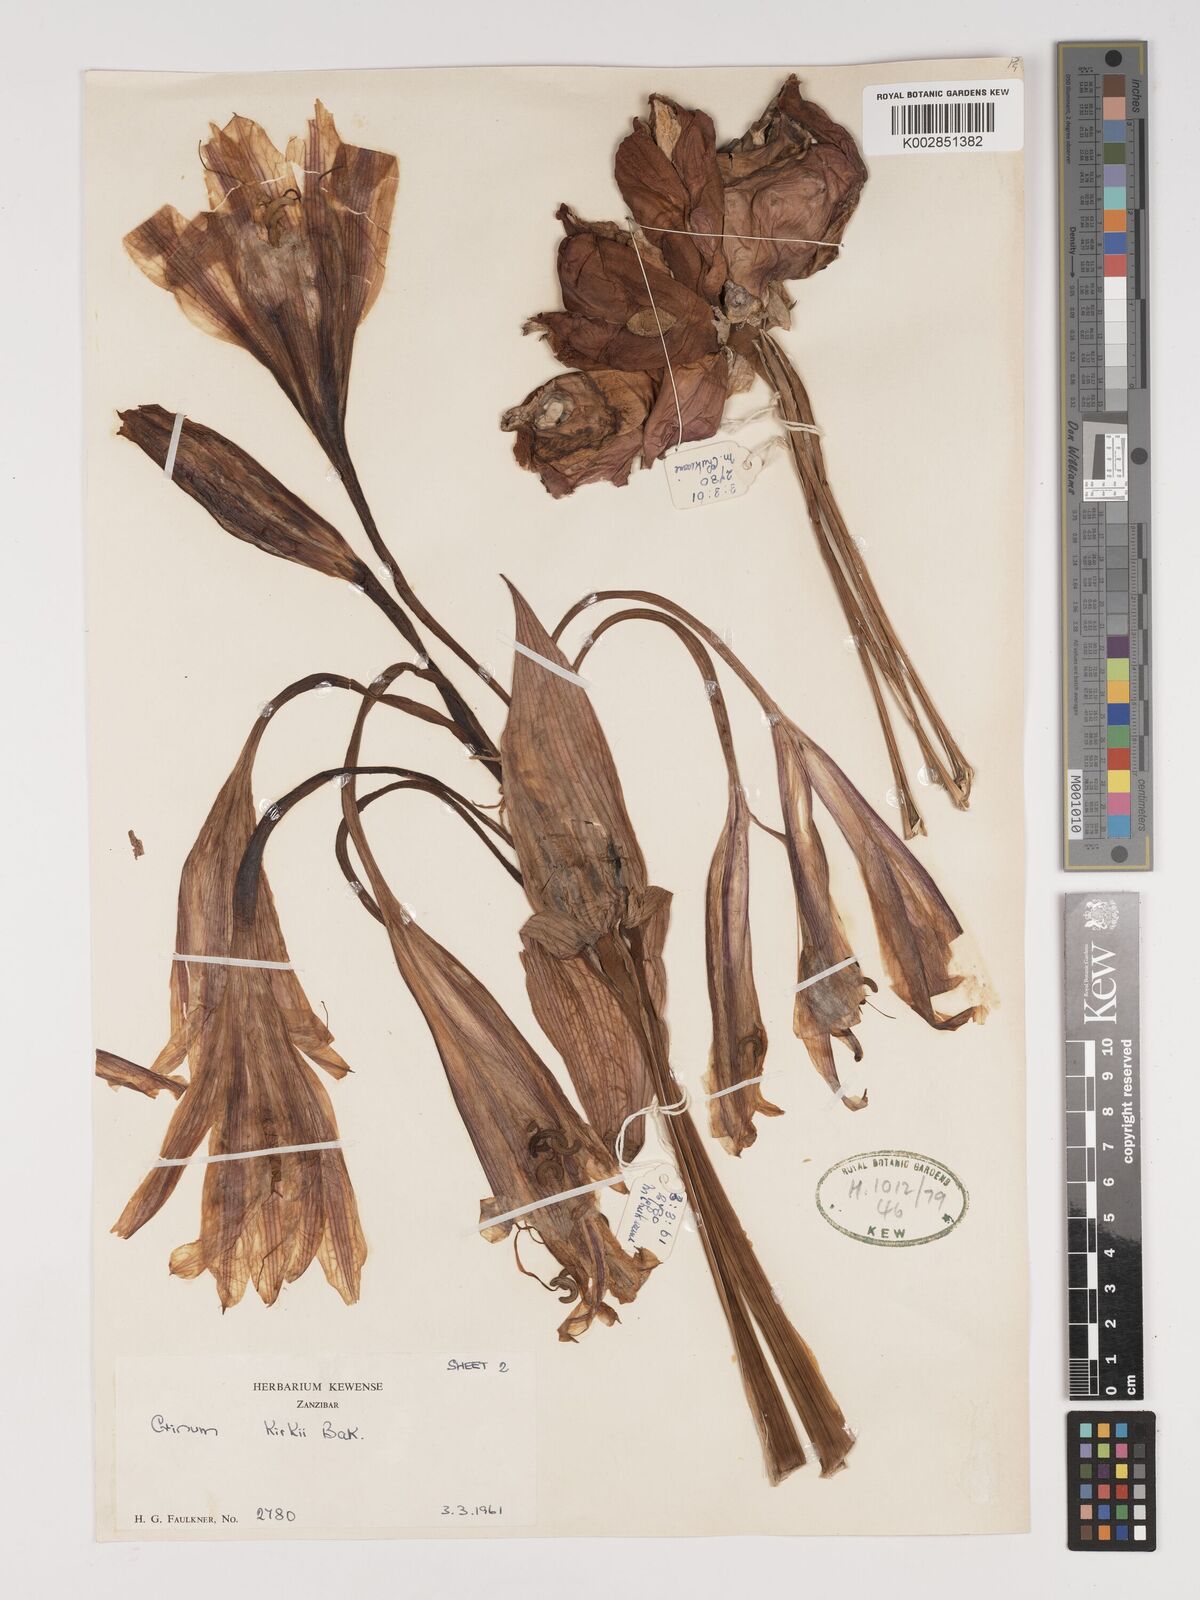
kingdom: Plantae
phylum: Tracheophyta
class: Liliopsida
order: Asparagales
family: Amaryllidaceae
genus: Crinum
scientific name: Crinum kirkii
